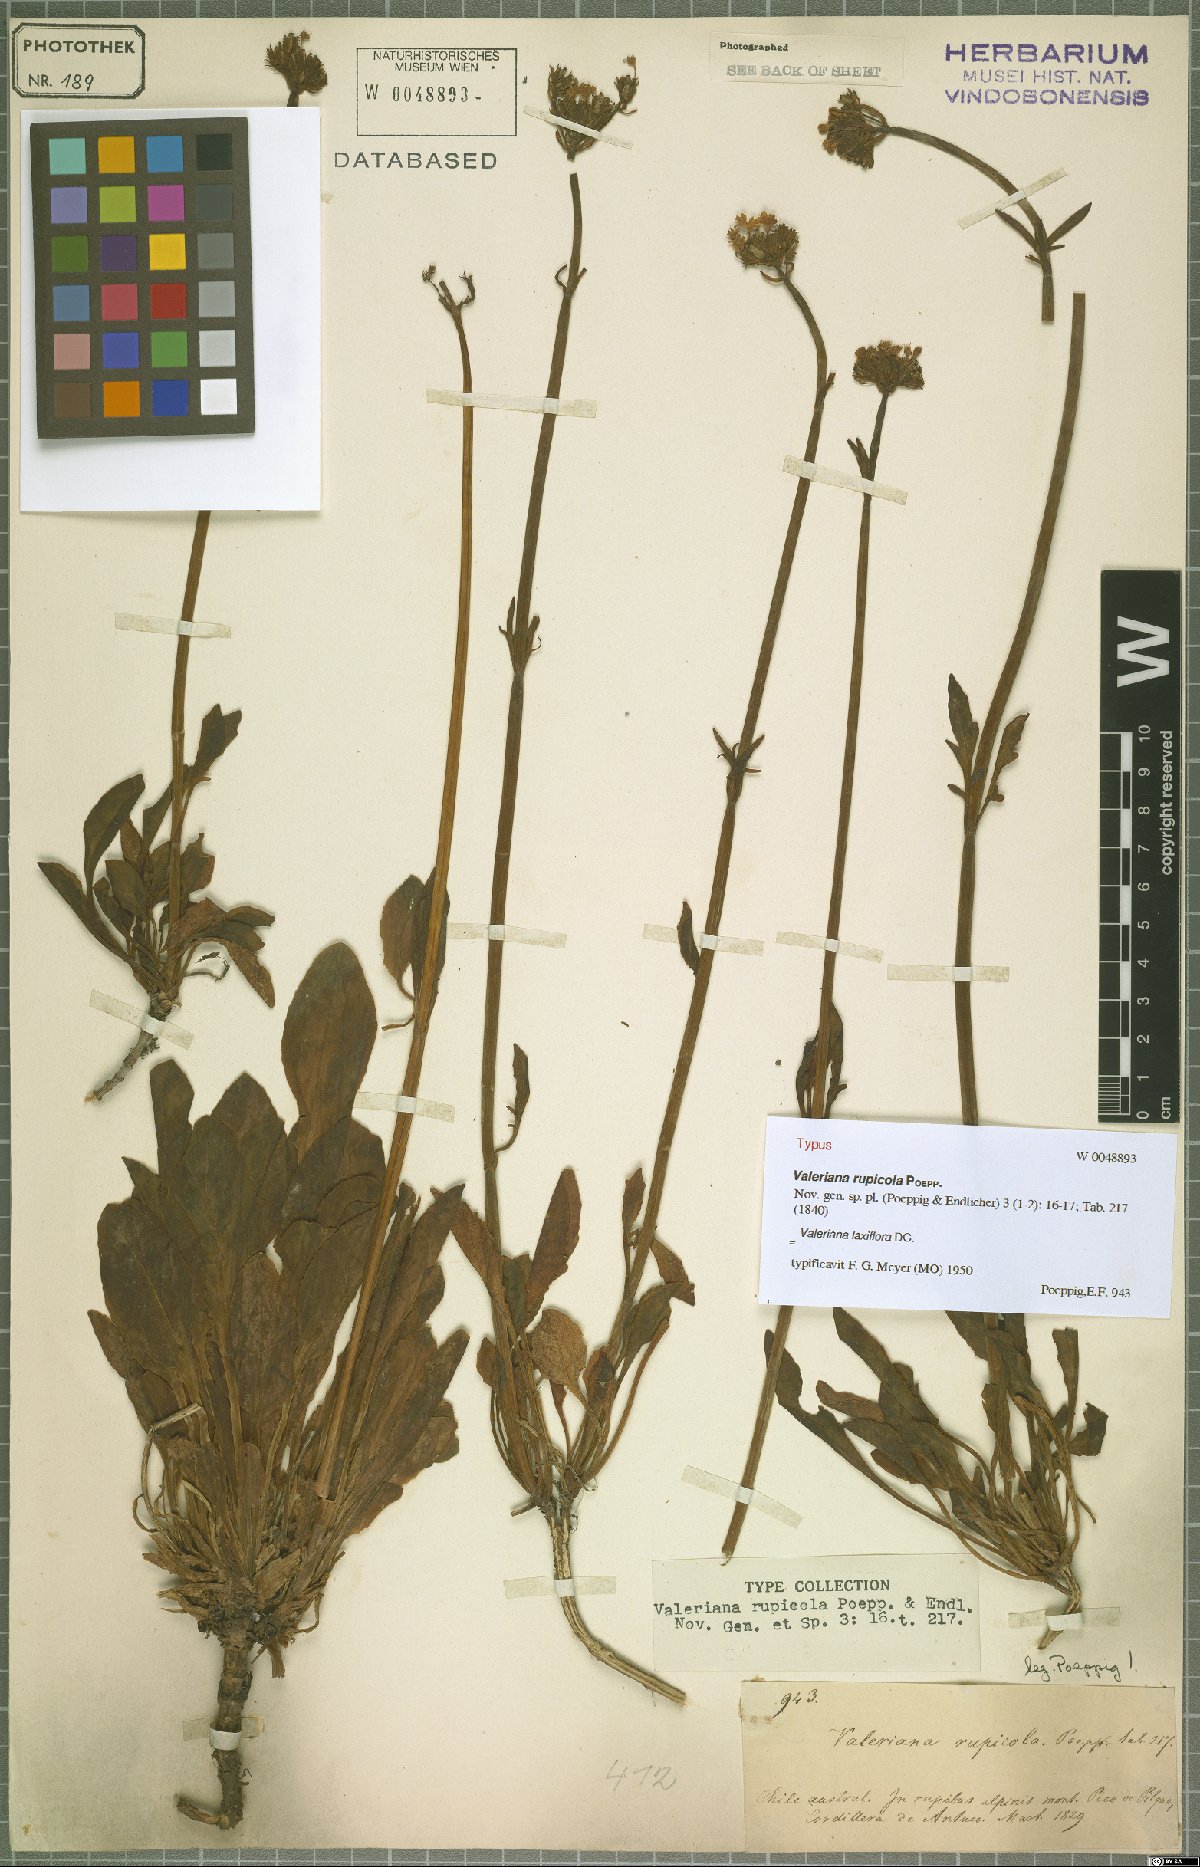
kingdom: Plantae
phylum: Tracheophyta
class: Magnoliopsida
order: Dipsacales
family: Caprifoliaceae
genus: Valeriana
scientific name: Valeriana laxiflora
